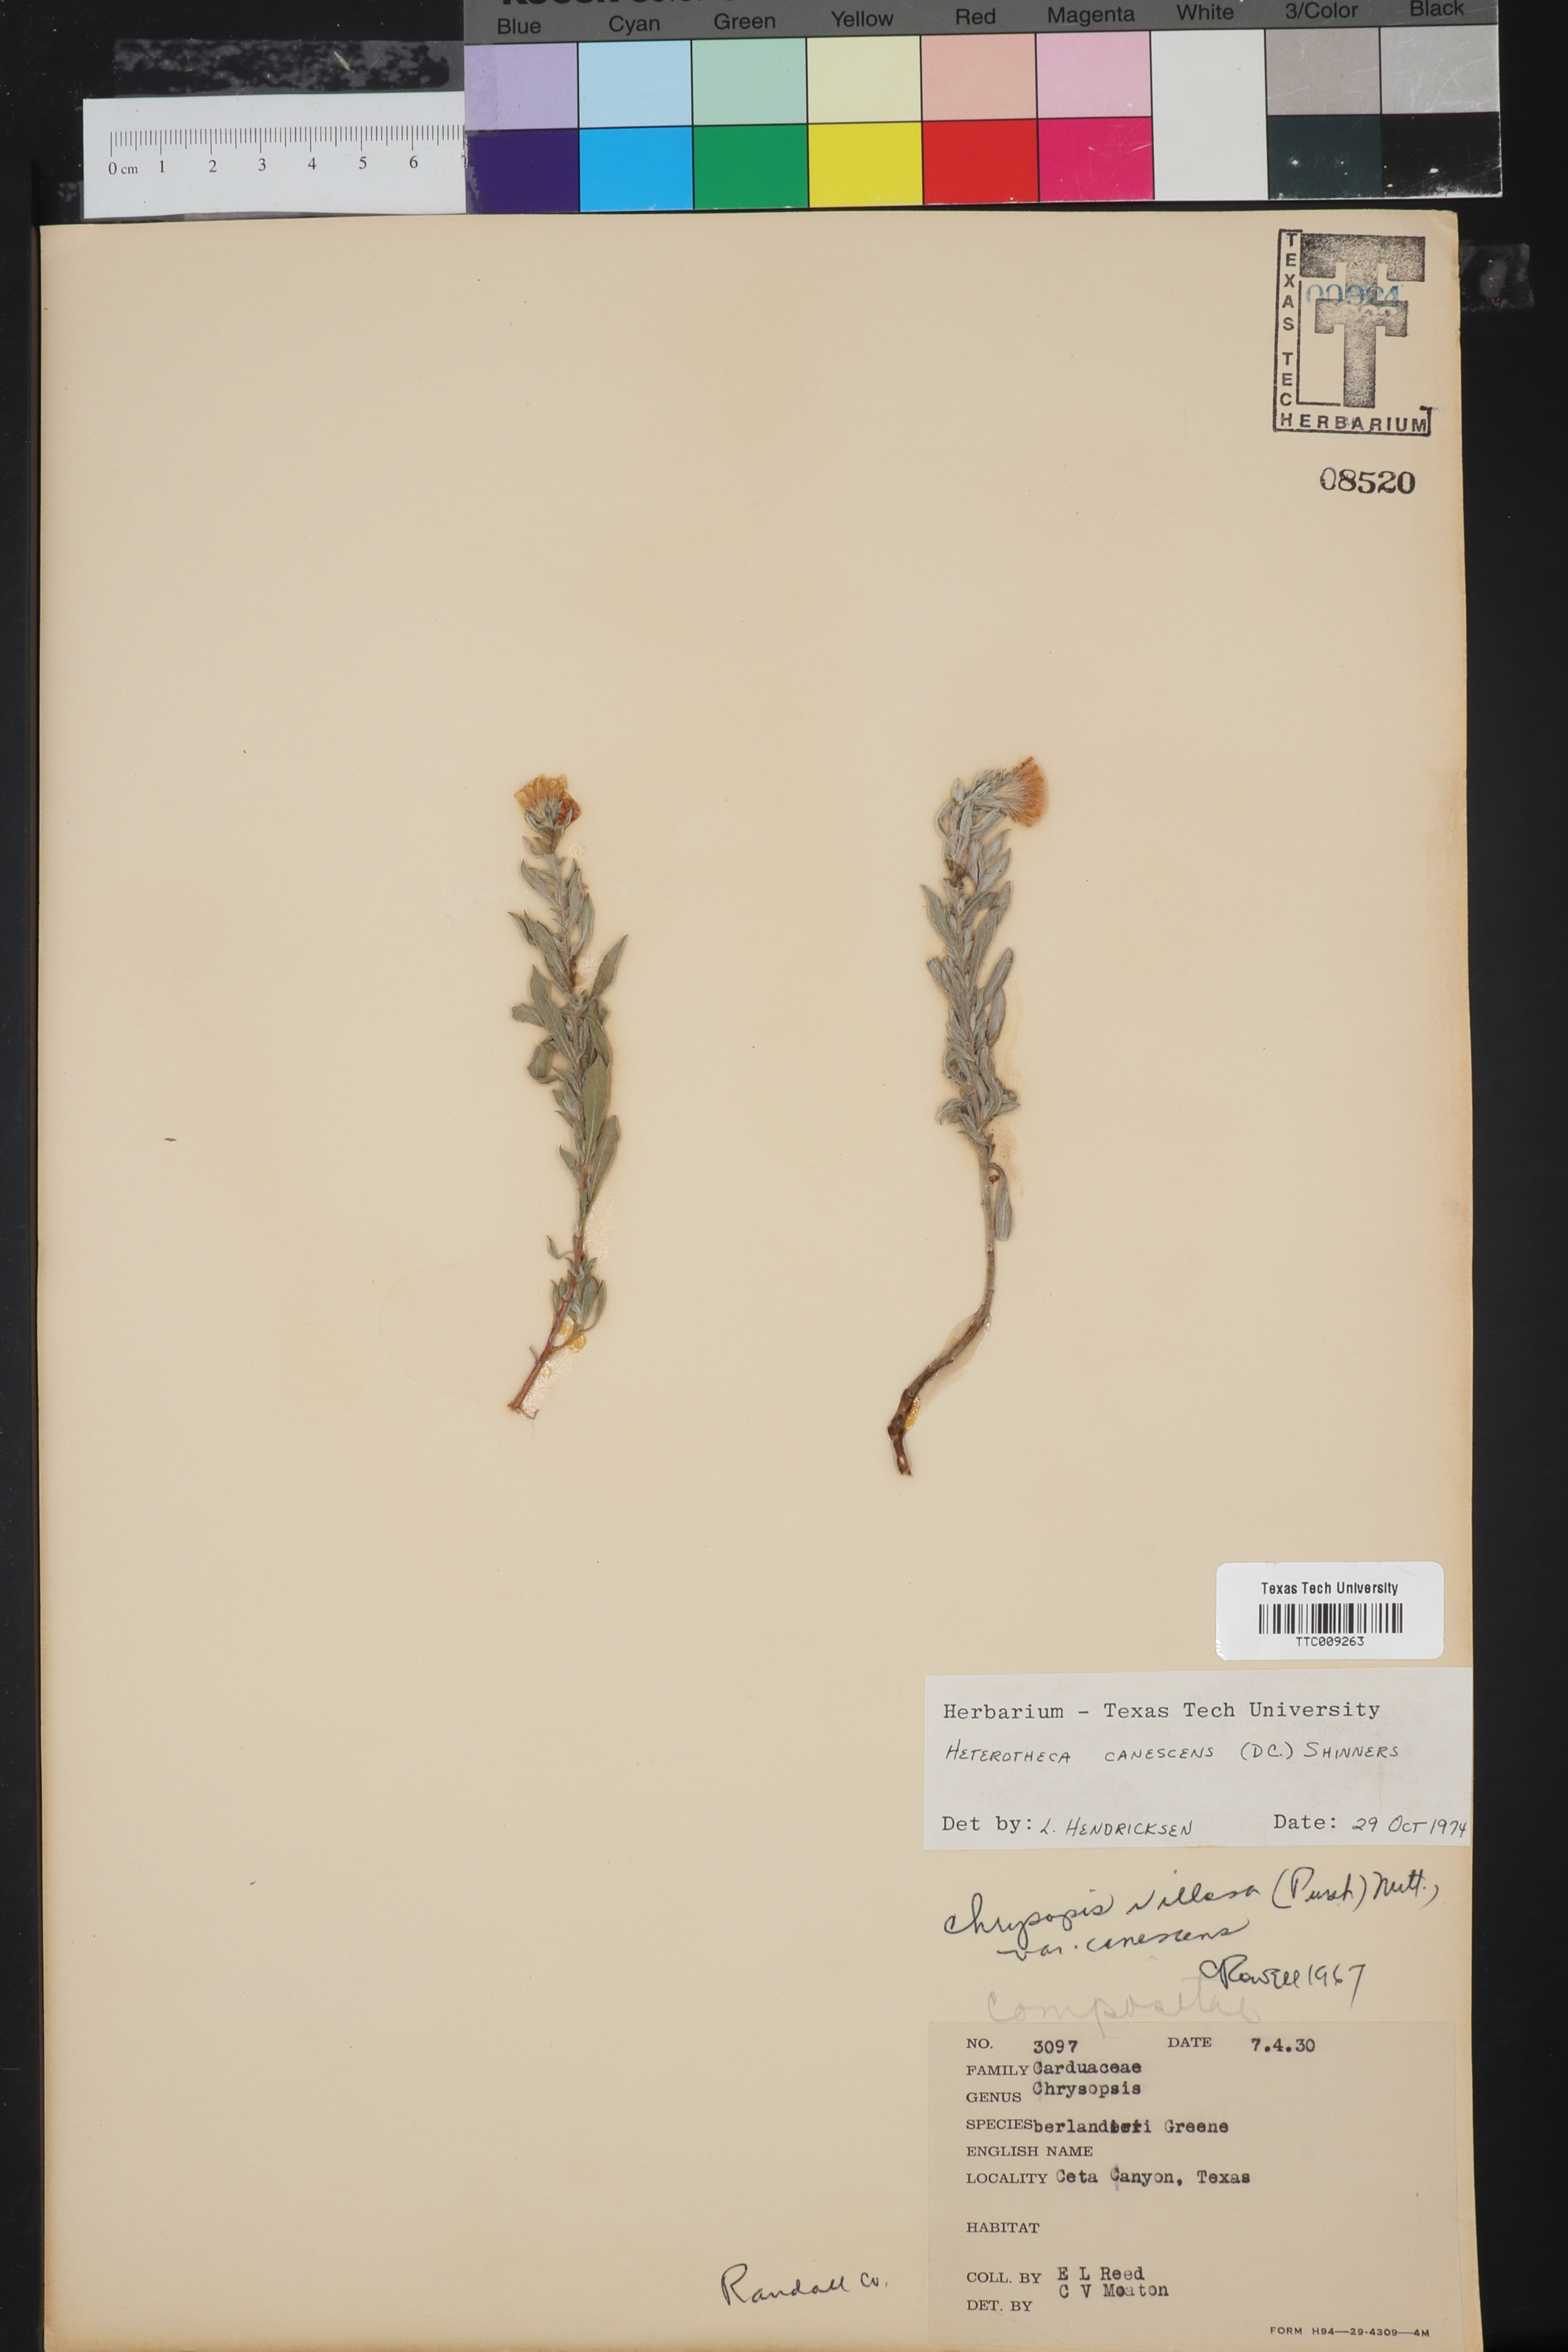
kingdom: Plantae
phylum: Tracheophyta
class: Magnoliopsida
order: Asterales
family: Asteraceae
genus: Heterotheca
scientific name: Heterotheca canescens
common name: Hoary golden-aster
